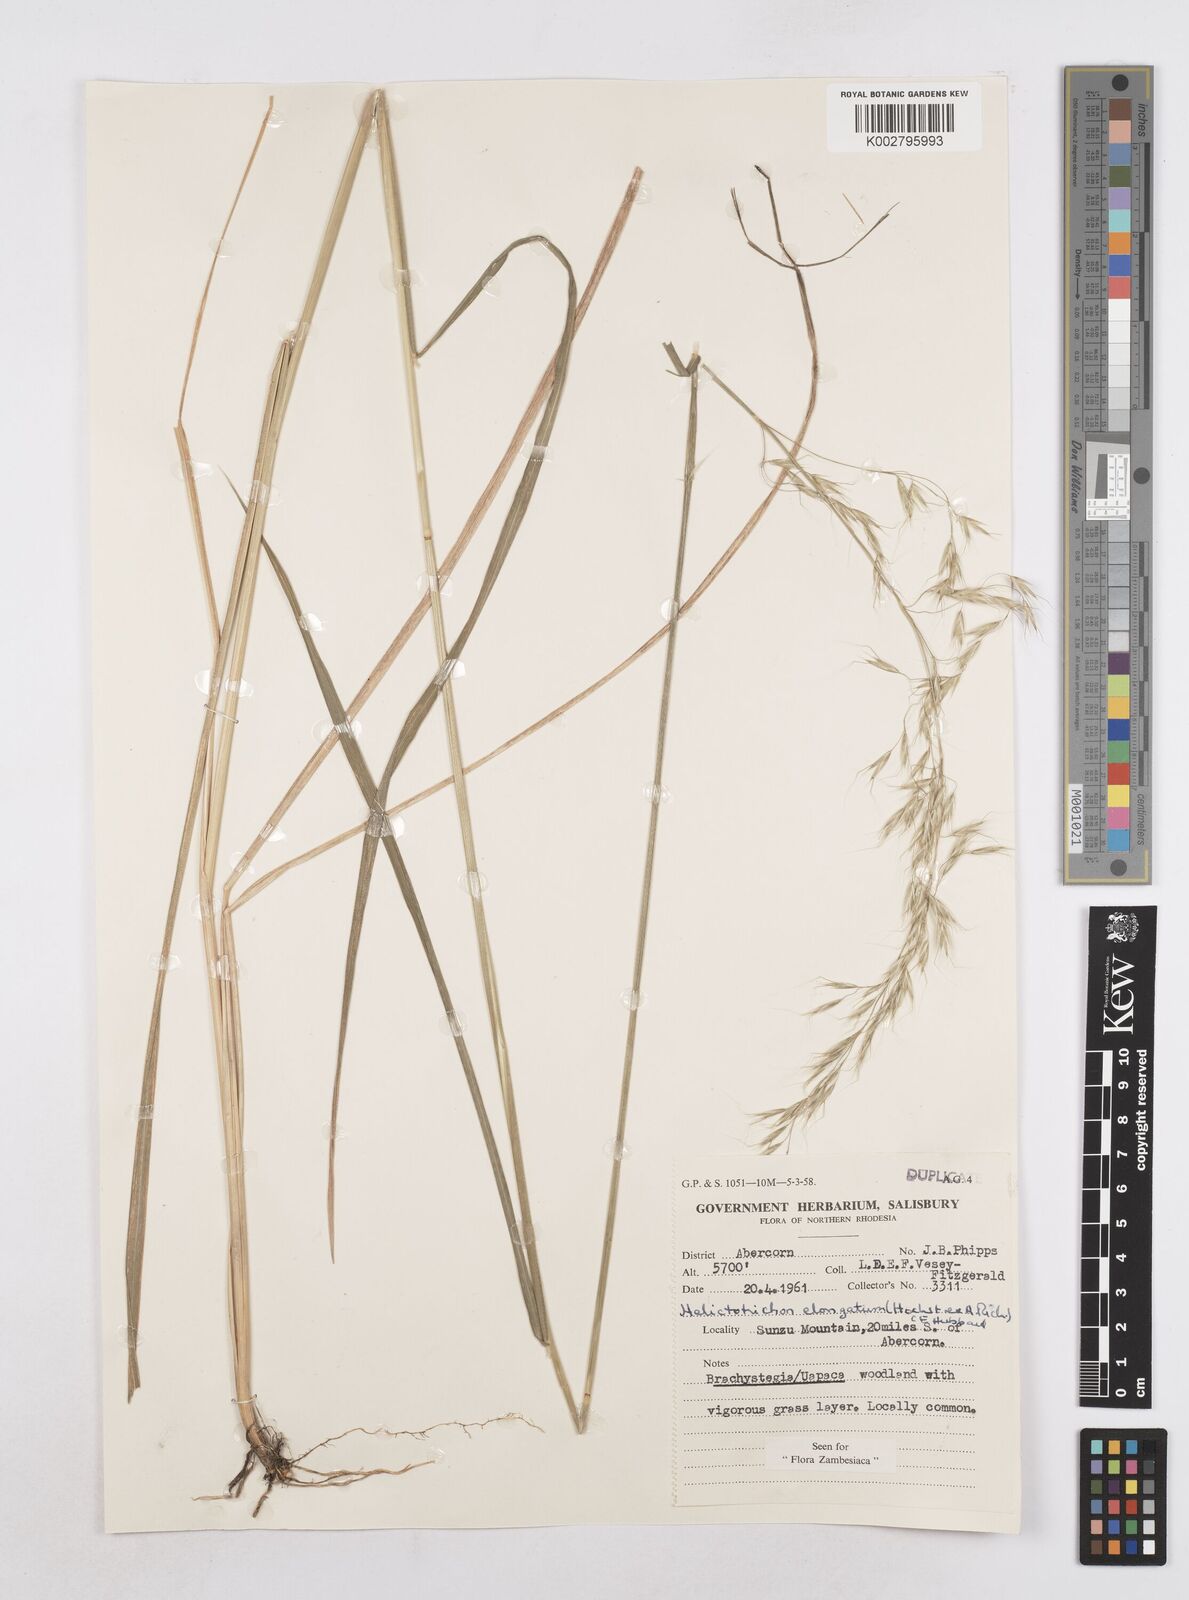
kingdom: Plantae
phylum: Tracheophyta
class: Liliopsida
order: Poales
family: Poaceae
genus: Trisetopsis
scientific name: Trisetopsis elongata
